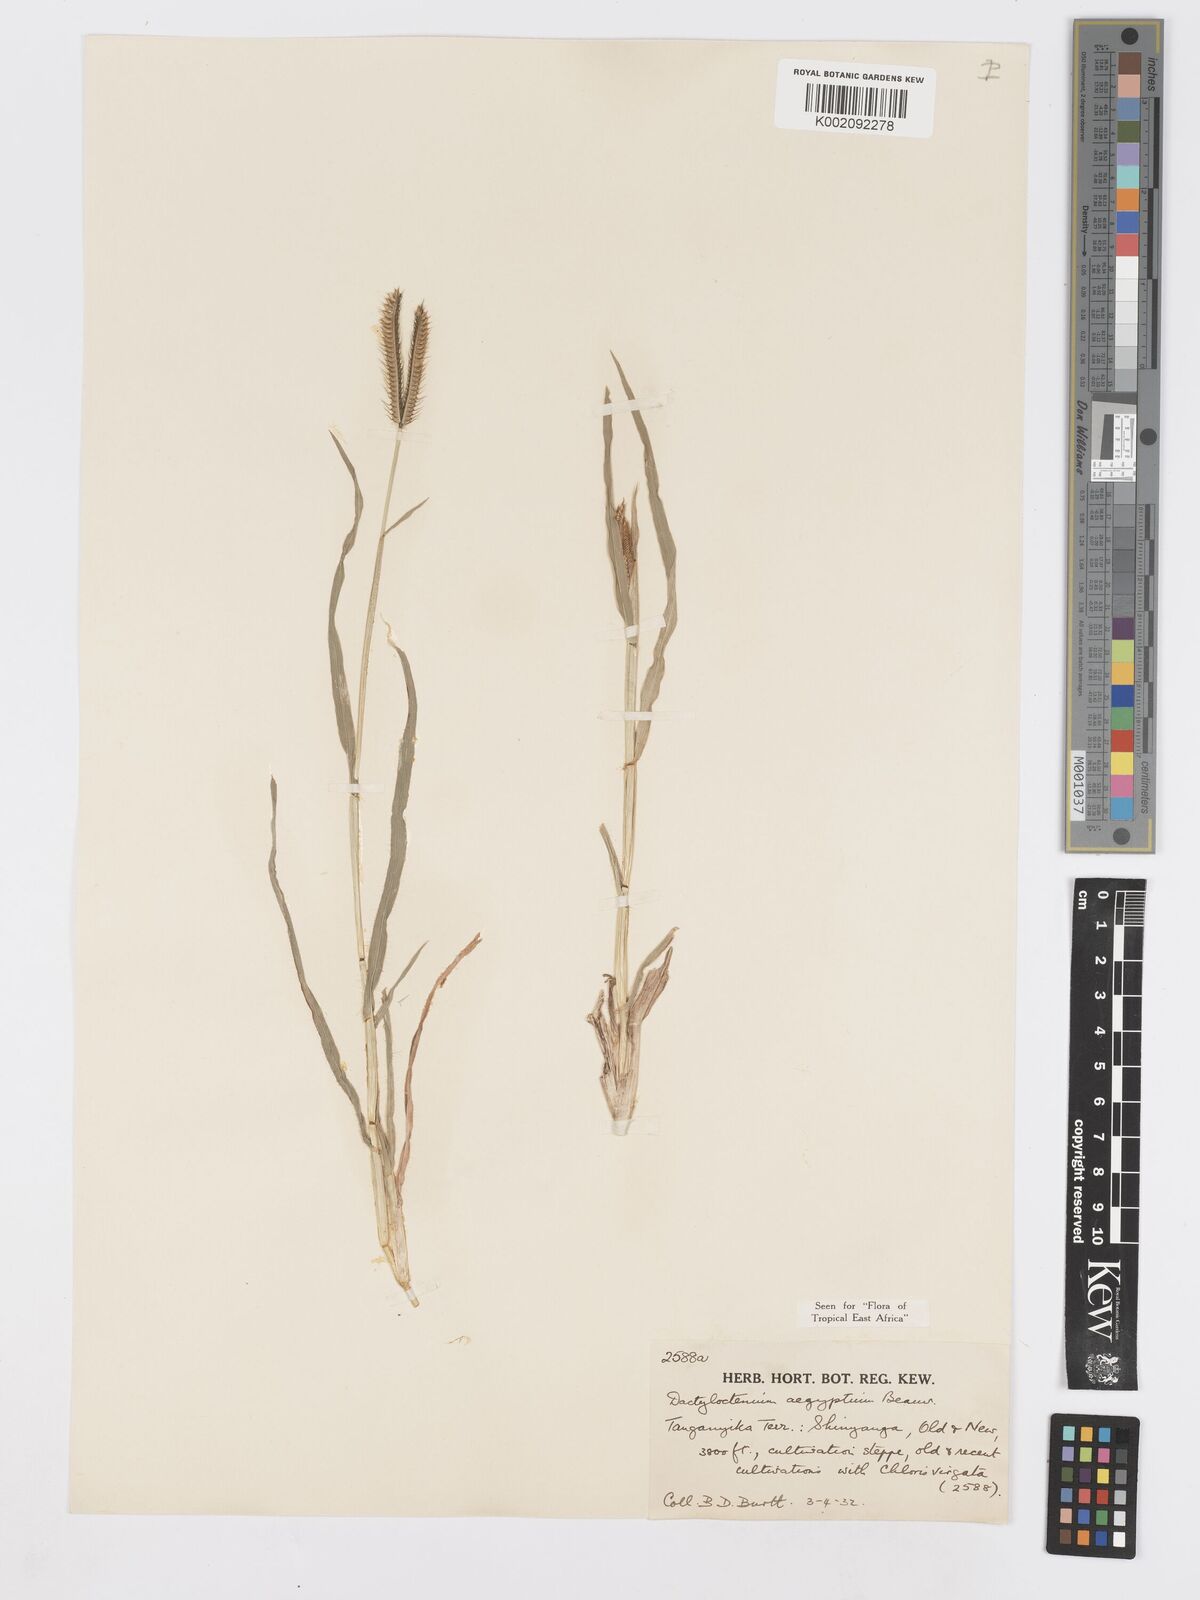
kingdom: Plantae
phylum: Tracheophyta
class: Liliopsida
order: Poales
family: Poaceae
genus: Dactyloctenium
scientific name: Dactyloctenium aegyptium
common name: Egyptian grass
